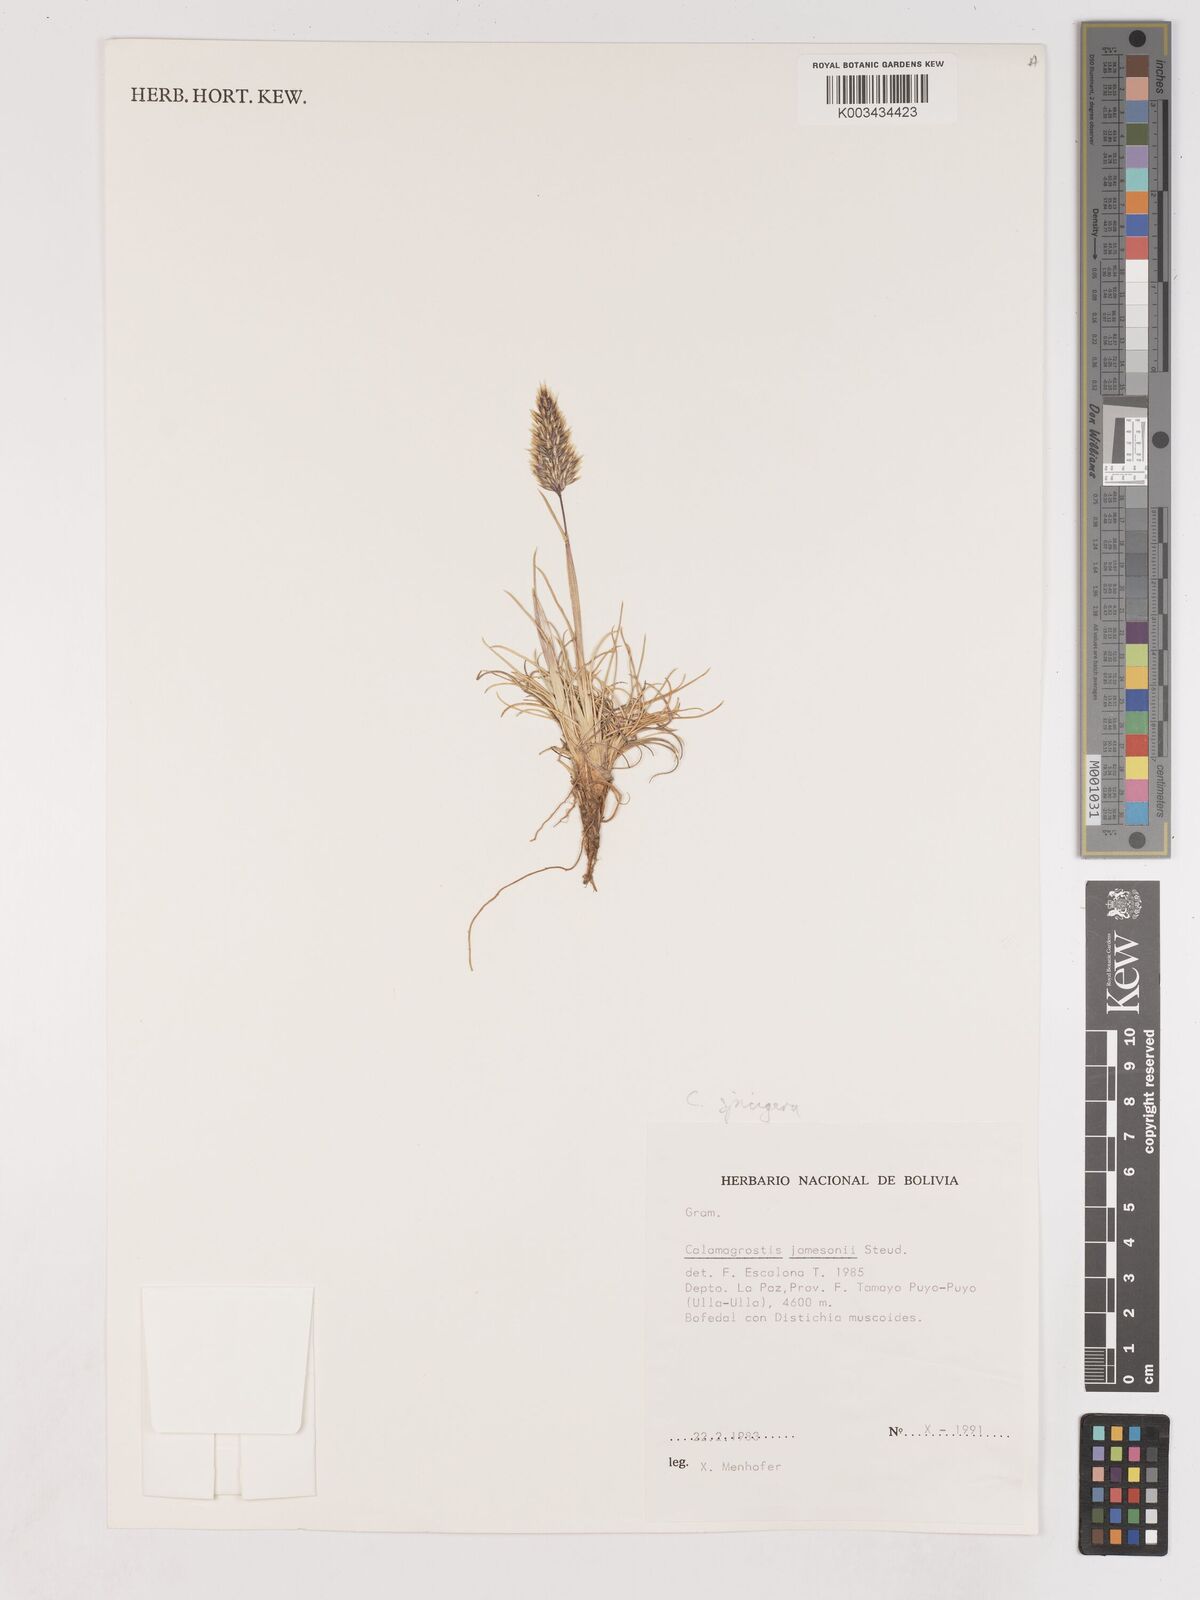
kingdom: Plantae
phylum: Tracheophyta
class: Liliopsida
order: Poales
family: Poaceae
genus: Cinnagrostis
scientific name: Cinnagrostis spicigera
